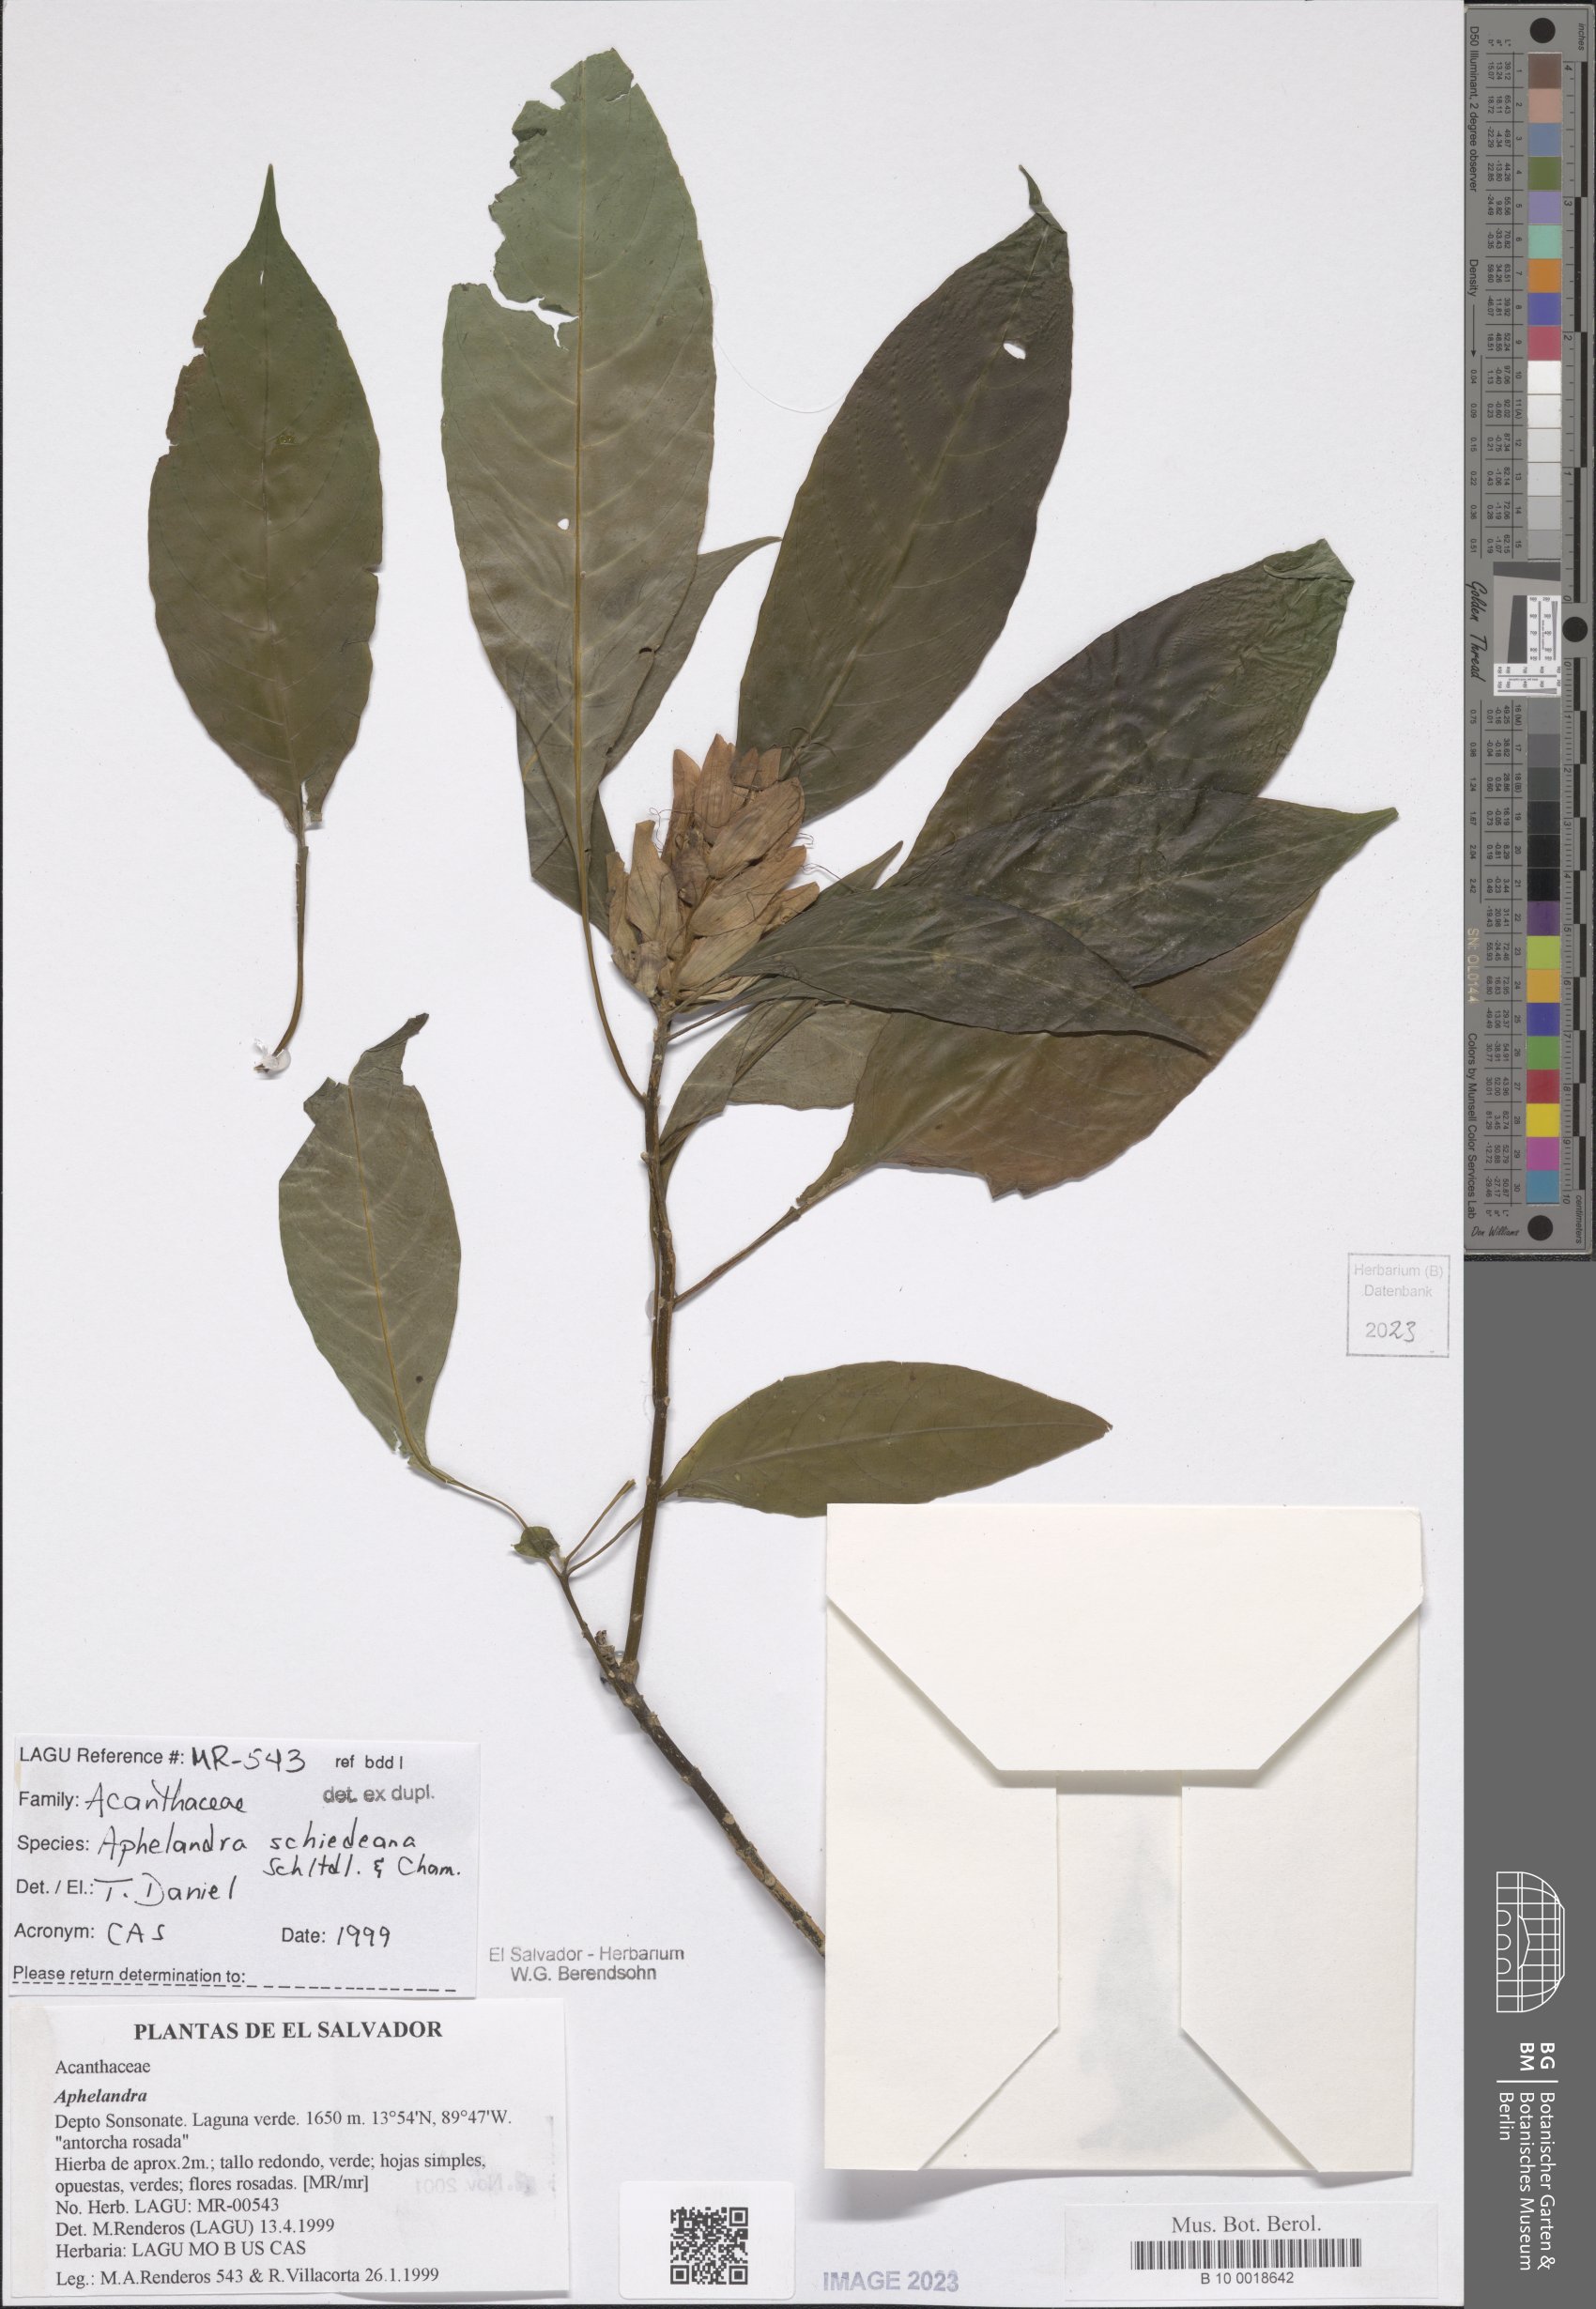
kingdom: Plantae
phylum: Tracheophyta
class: Magnoliopsida
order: Lamiales
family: Acanthaceae
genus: Aphelandra
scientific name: Aphelandra schiedeana
